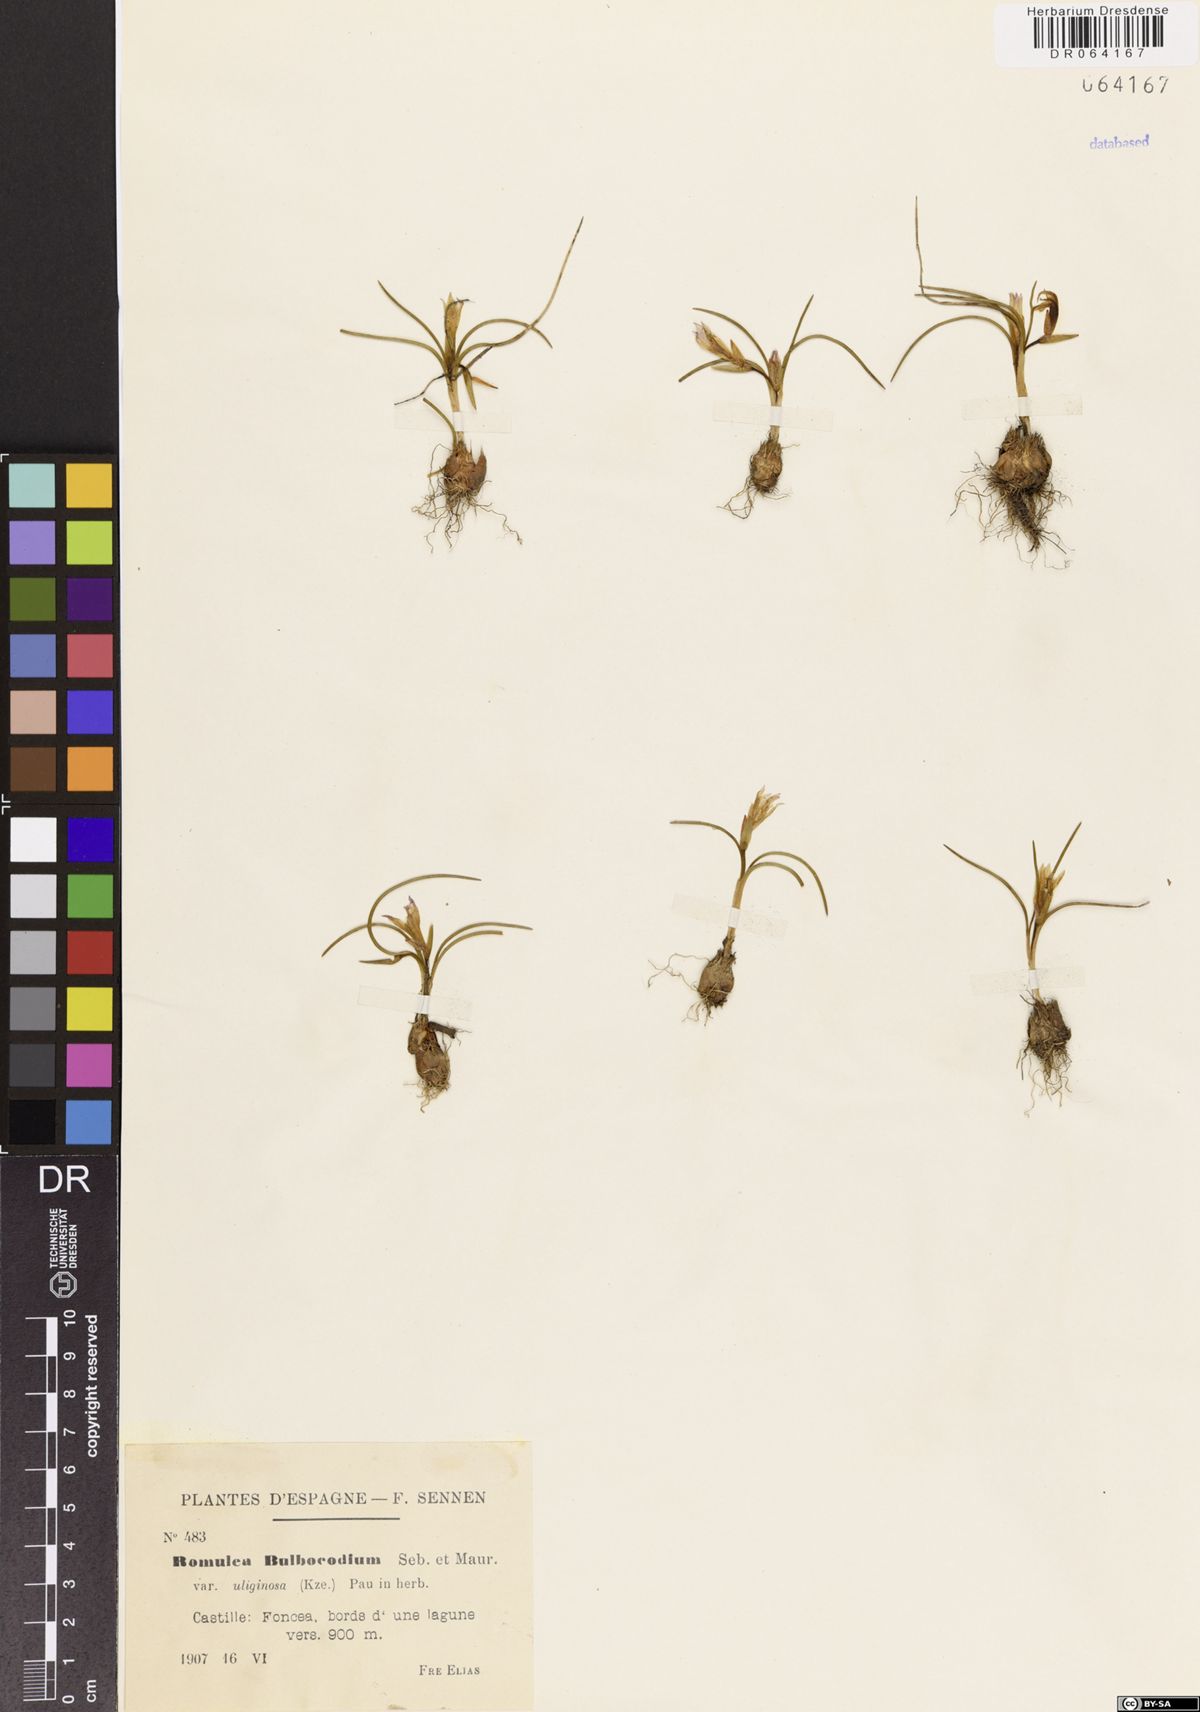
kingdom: Plantae
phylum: Tracheophyta
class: Liliopsida
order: Asparagales
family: Iridaceae
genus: Romulea
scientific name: Romulea bulbocodium
